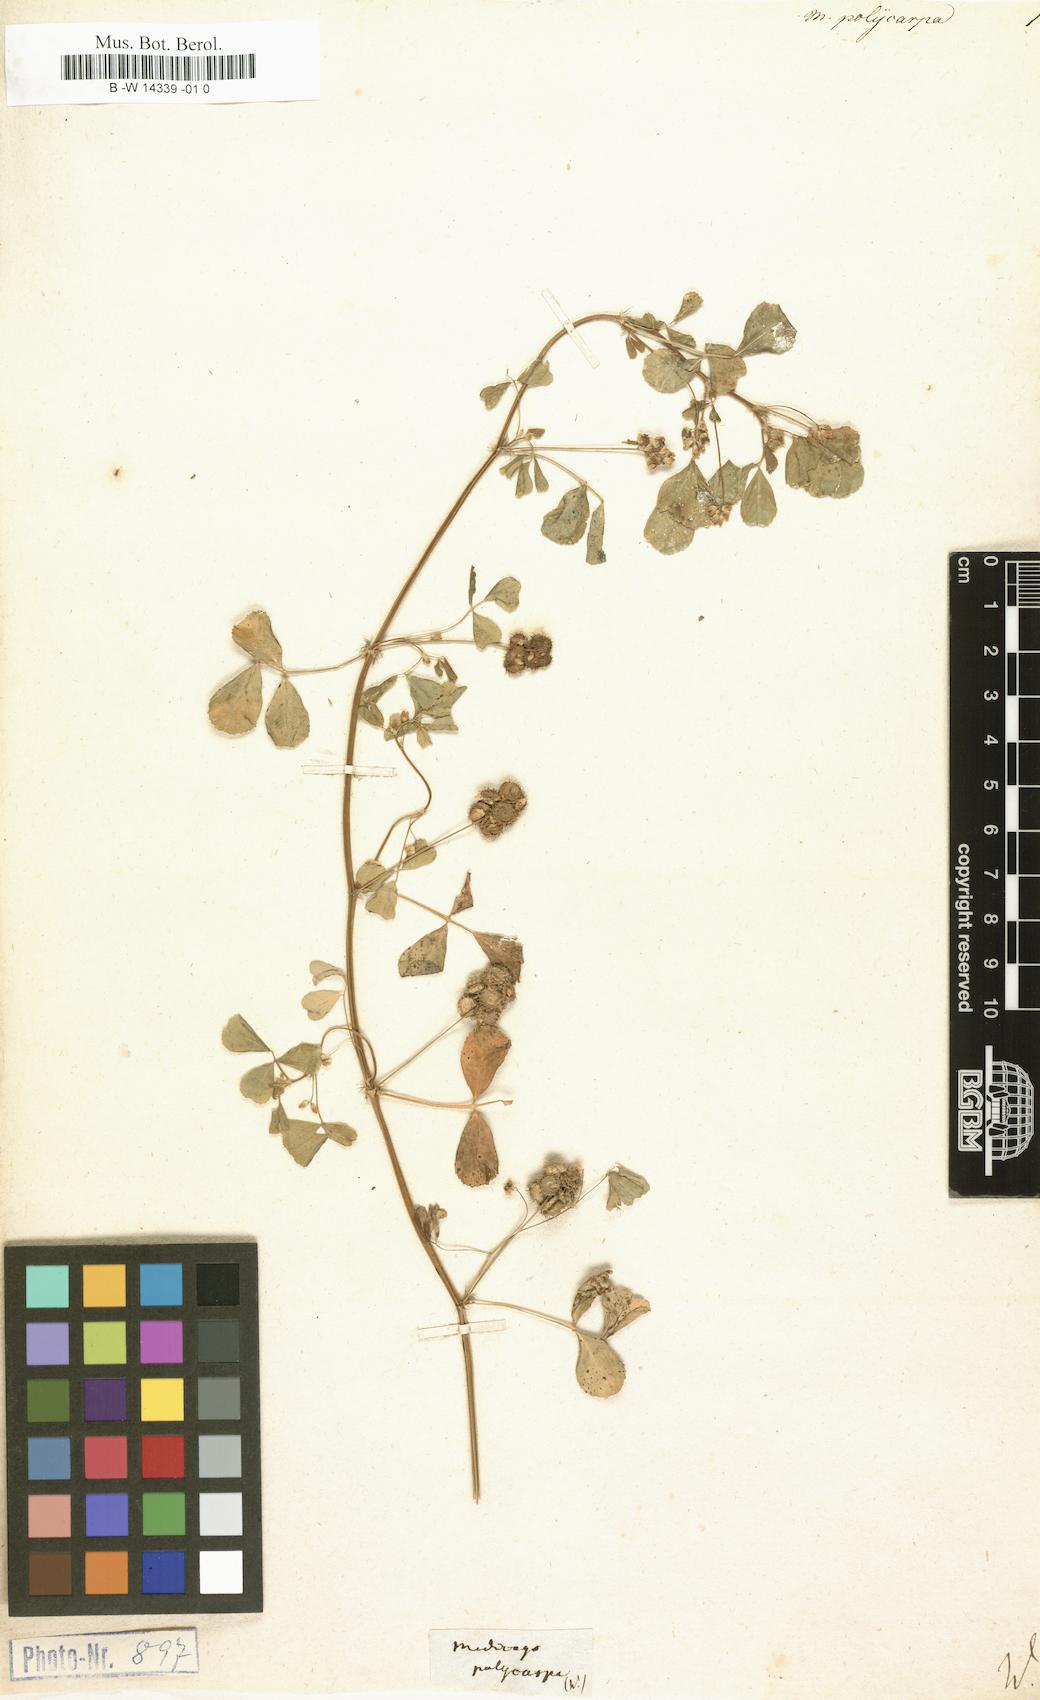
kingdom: Plantae
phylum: Tracheophyta
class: Magnoliopsida
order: Fabales
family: Fabaceae
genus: Medicago
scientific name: Medicago polymorpha
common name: Burclover
